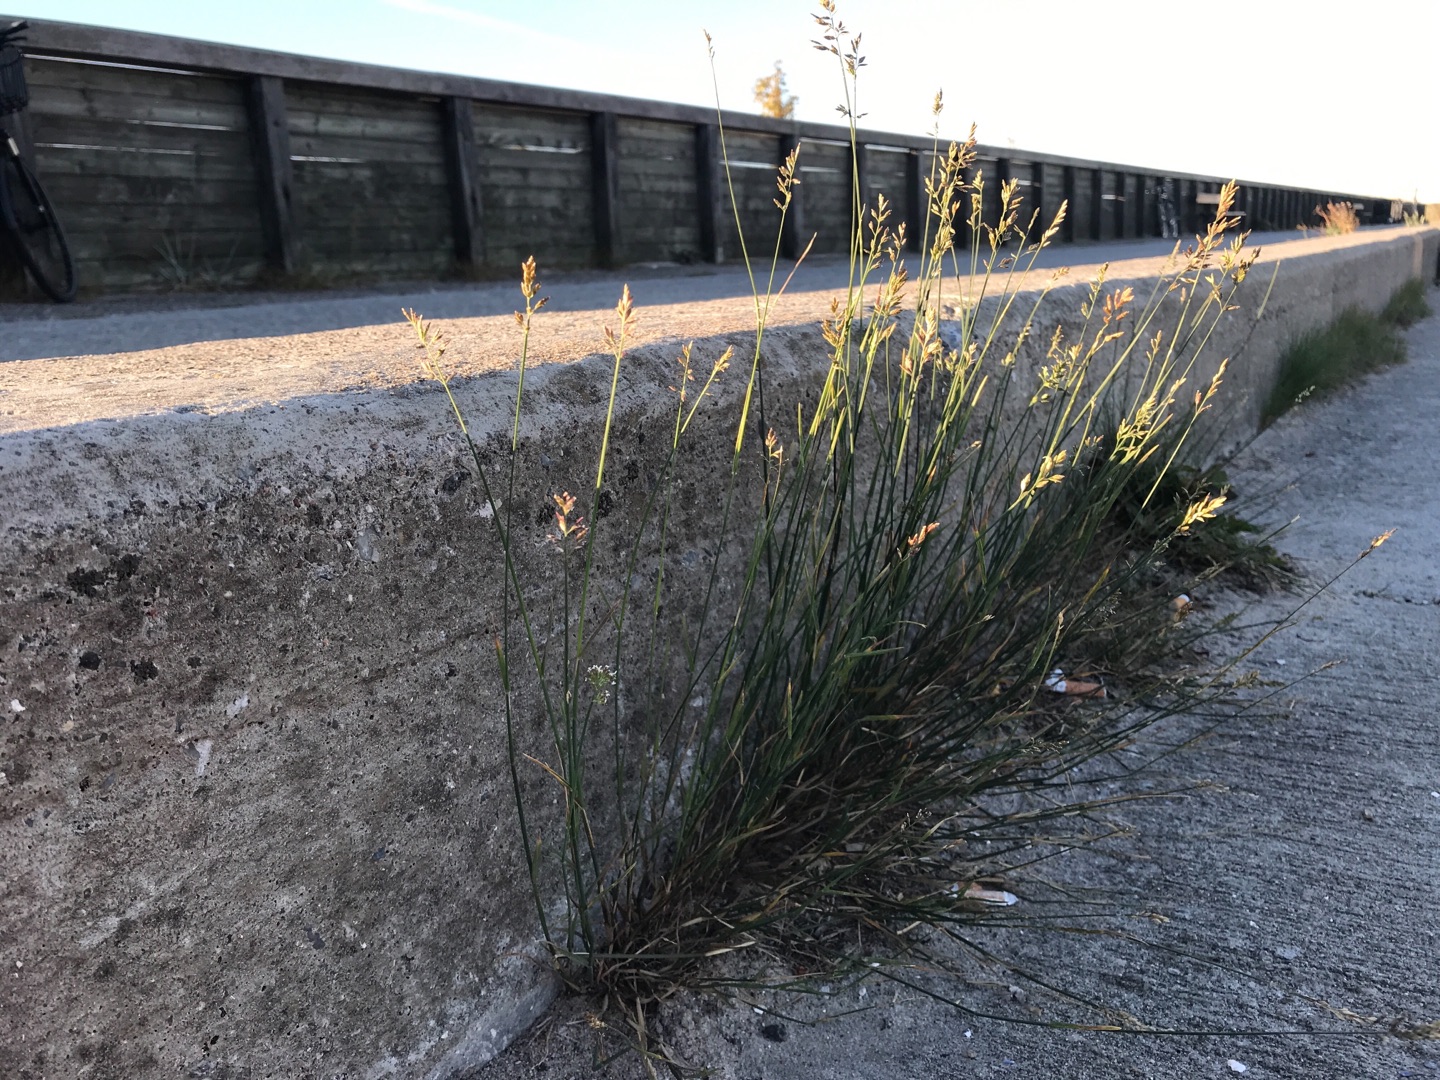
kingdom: Plantae
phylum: Tracheophyta
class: Liliopsida
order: Poales
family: Poaceae
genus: Poa
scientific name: Poa compressa
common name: Fladstrået rapgræs
